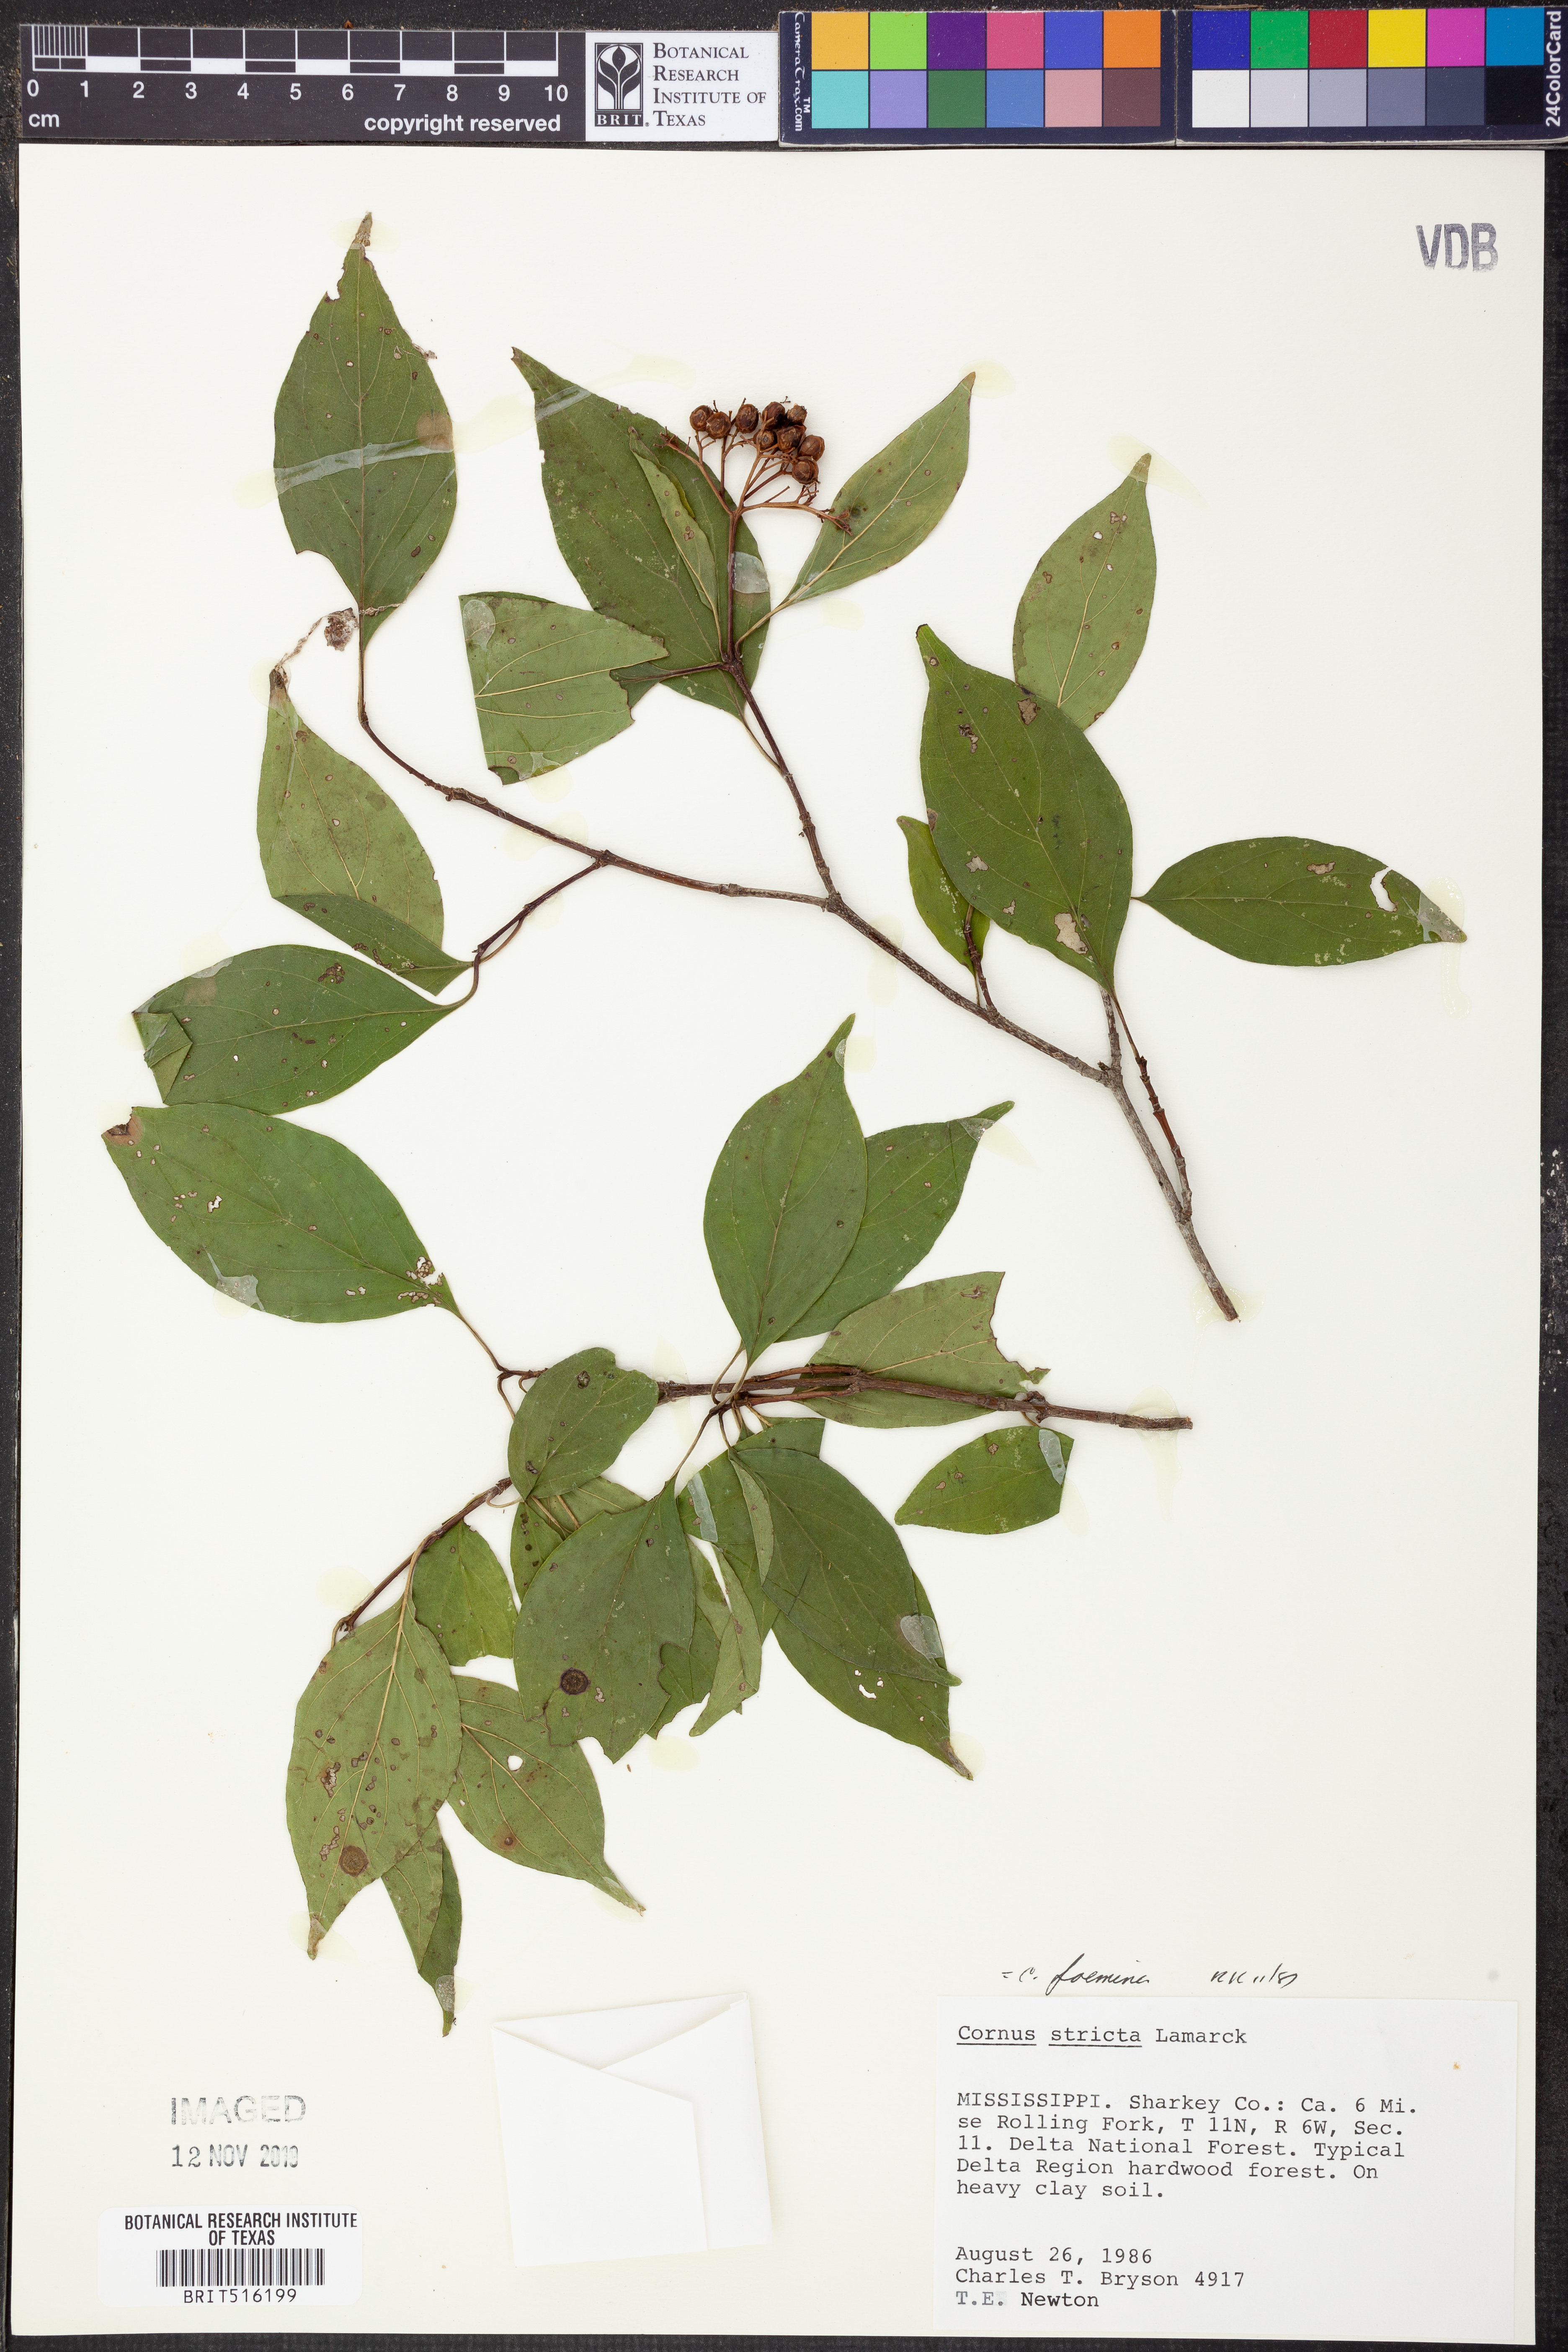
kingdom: Plantae
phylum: Tracheophyta
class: Magnoliopsida
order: Cornales
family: Cornaceae
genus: Cornus
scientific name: Cornus foemina
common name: Swamp dogwood
